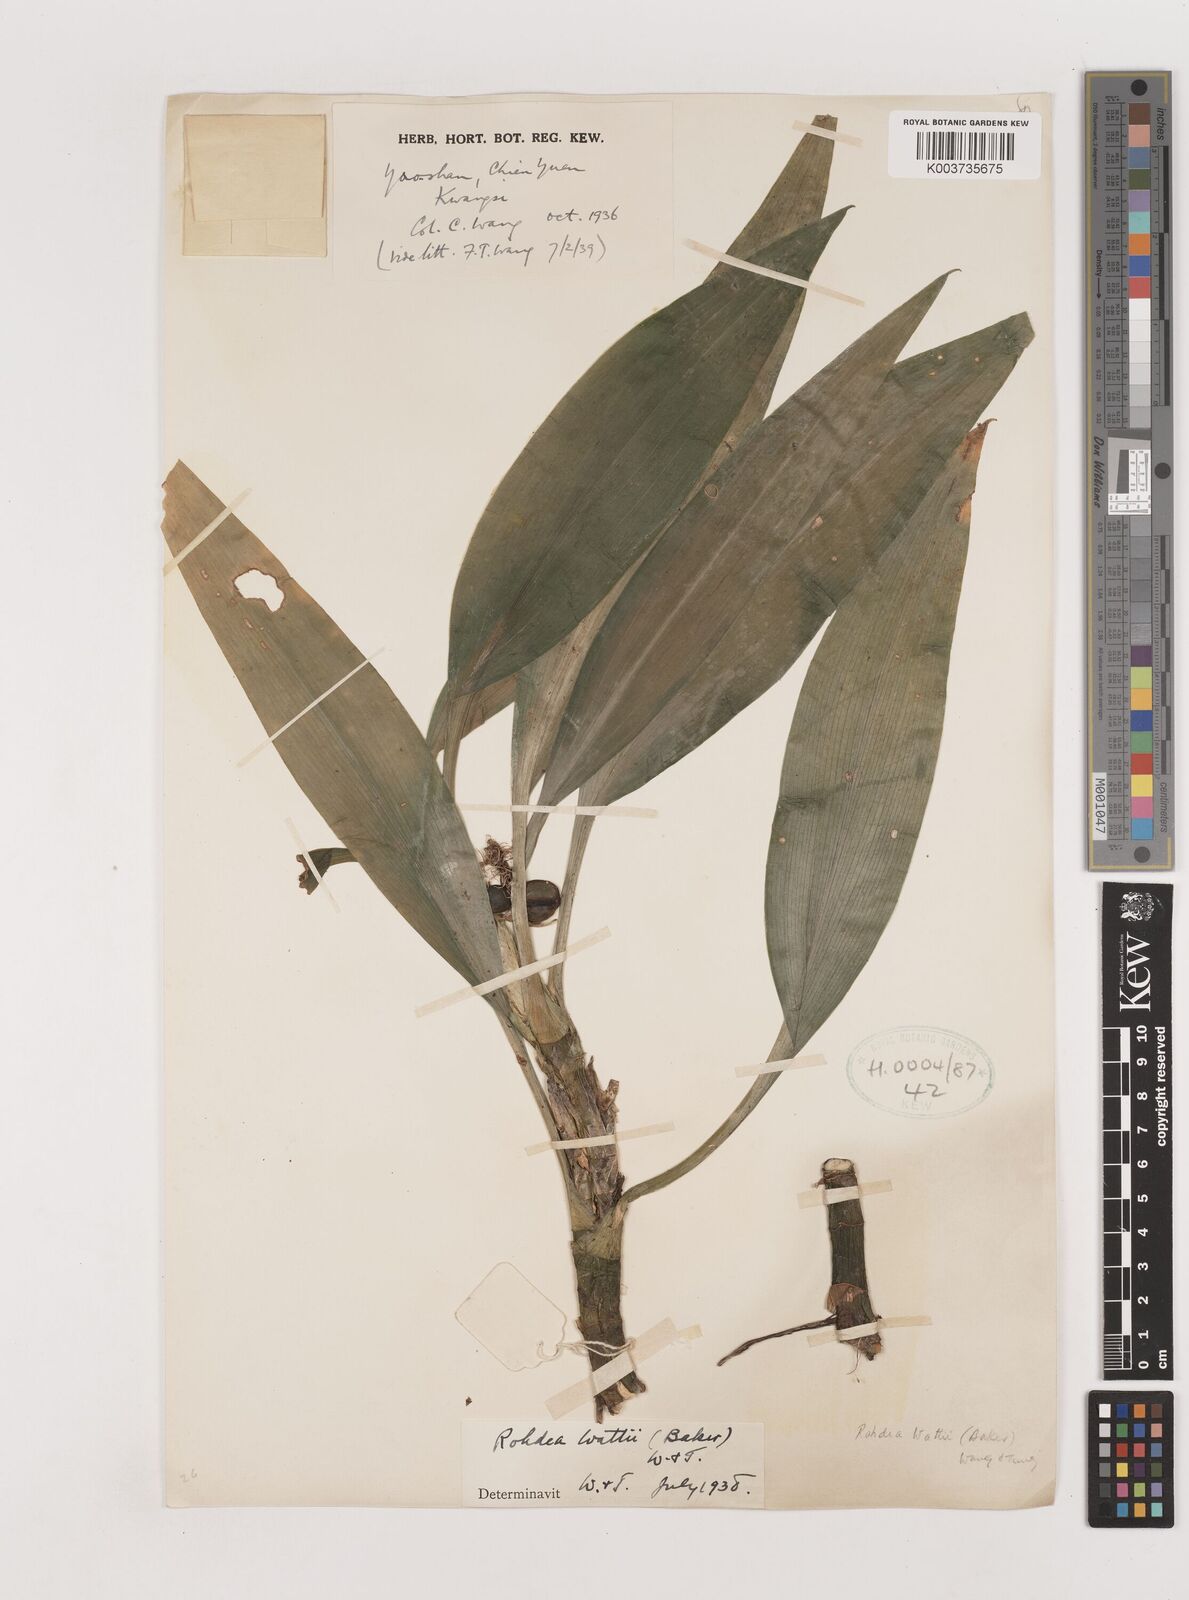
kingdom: Plantae
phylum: Tracheophyta
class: Liliopsida
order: Asparagales
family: Asparagaceae
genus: Rohdea
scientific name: Rohdea wattii
